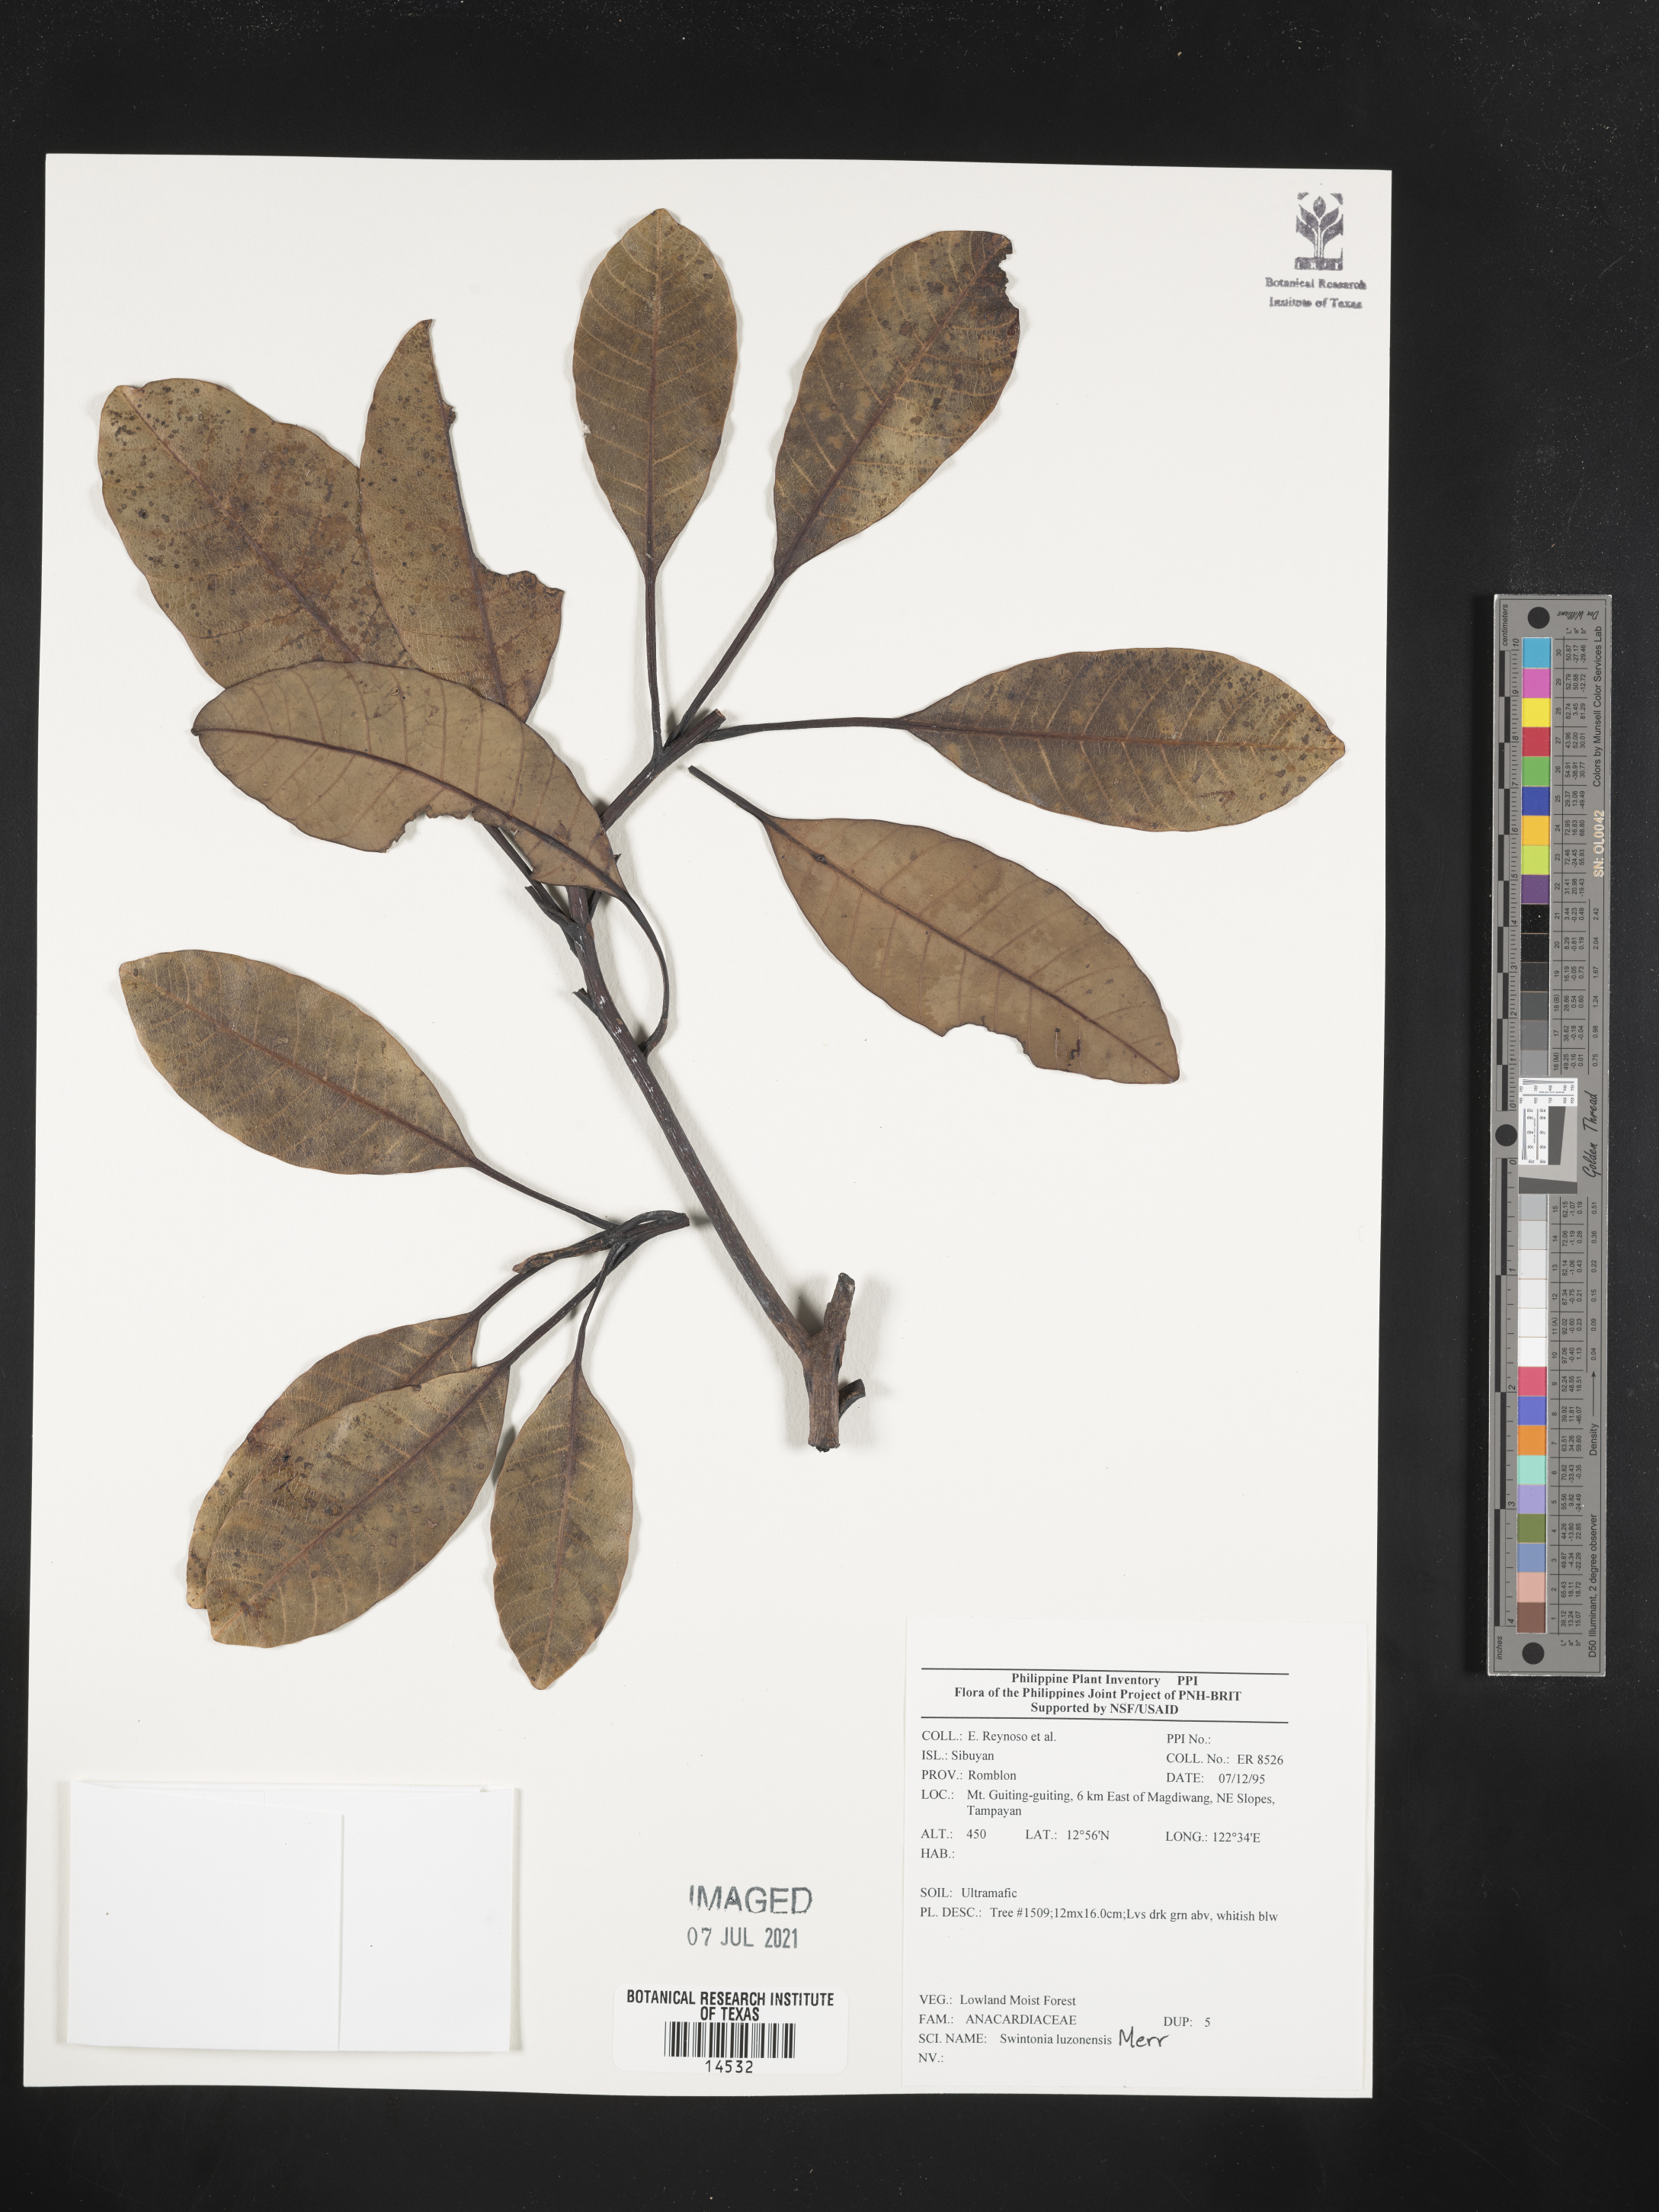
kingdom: Plantae
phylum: Tracheophyta
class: Magnoliopsida
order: Sapindales
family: Anacardiaceae
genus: Swintonia
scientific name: Swintonia acuta
